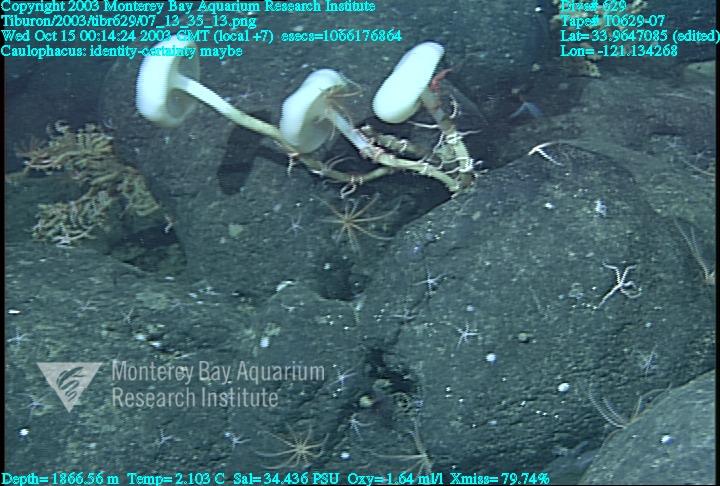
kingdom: Animalia
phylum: Porifera
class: Hexactinellida
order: Lyssacinosida
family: Rossellidae
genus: Caulophacus
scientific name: Caulophacus
